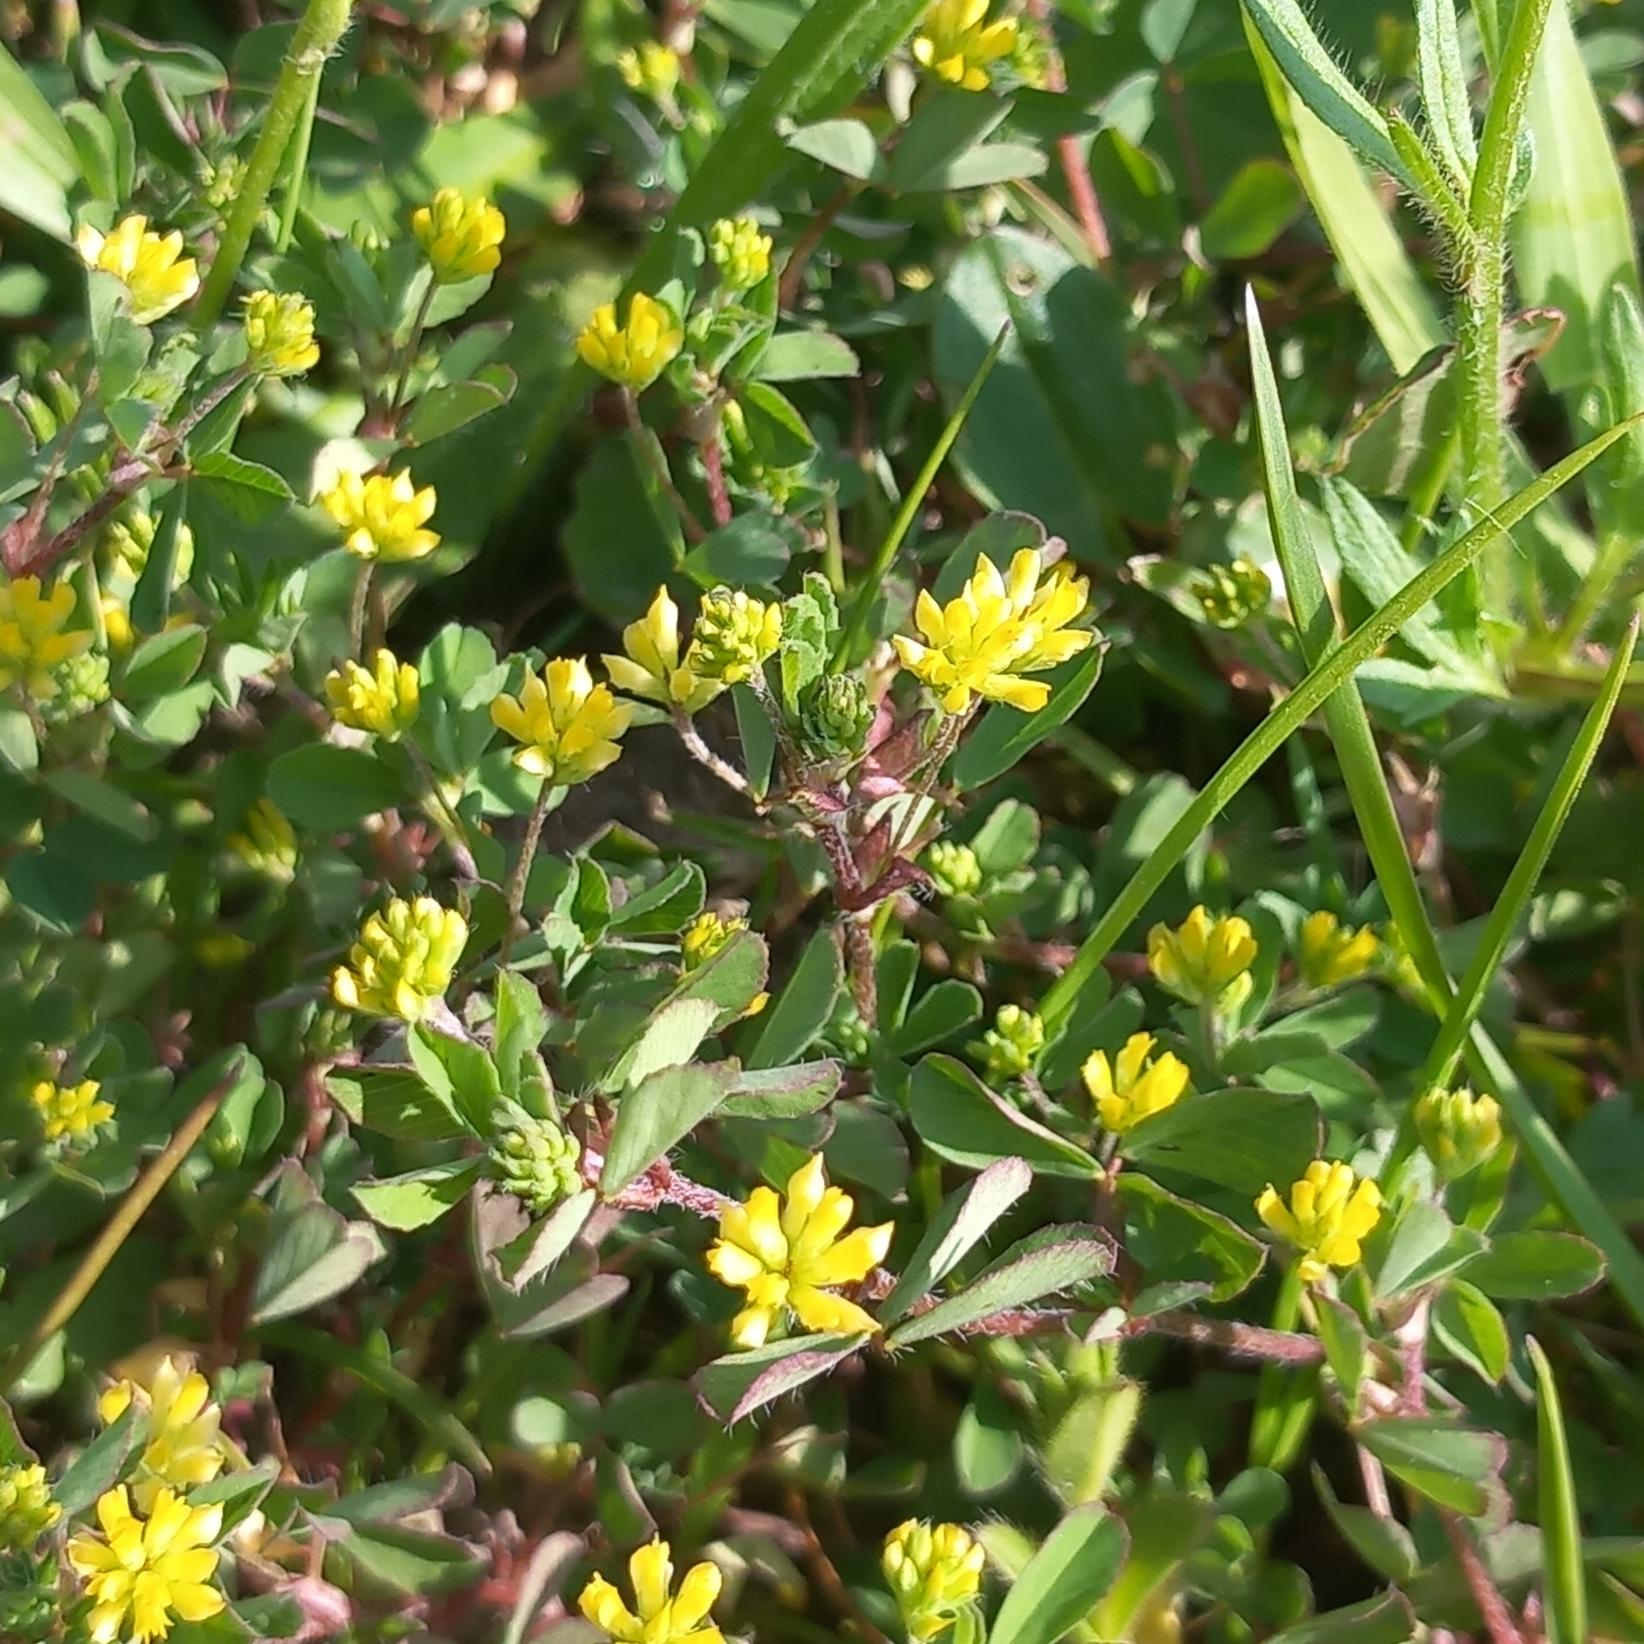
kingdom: Plantae
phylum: Tracheophyta
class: Magnoliopsida
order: Fabales
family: Fabaceae
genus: Trifolium
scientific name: Trifolium dubium
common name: Fin kløver
